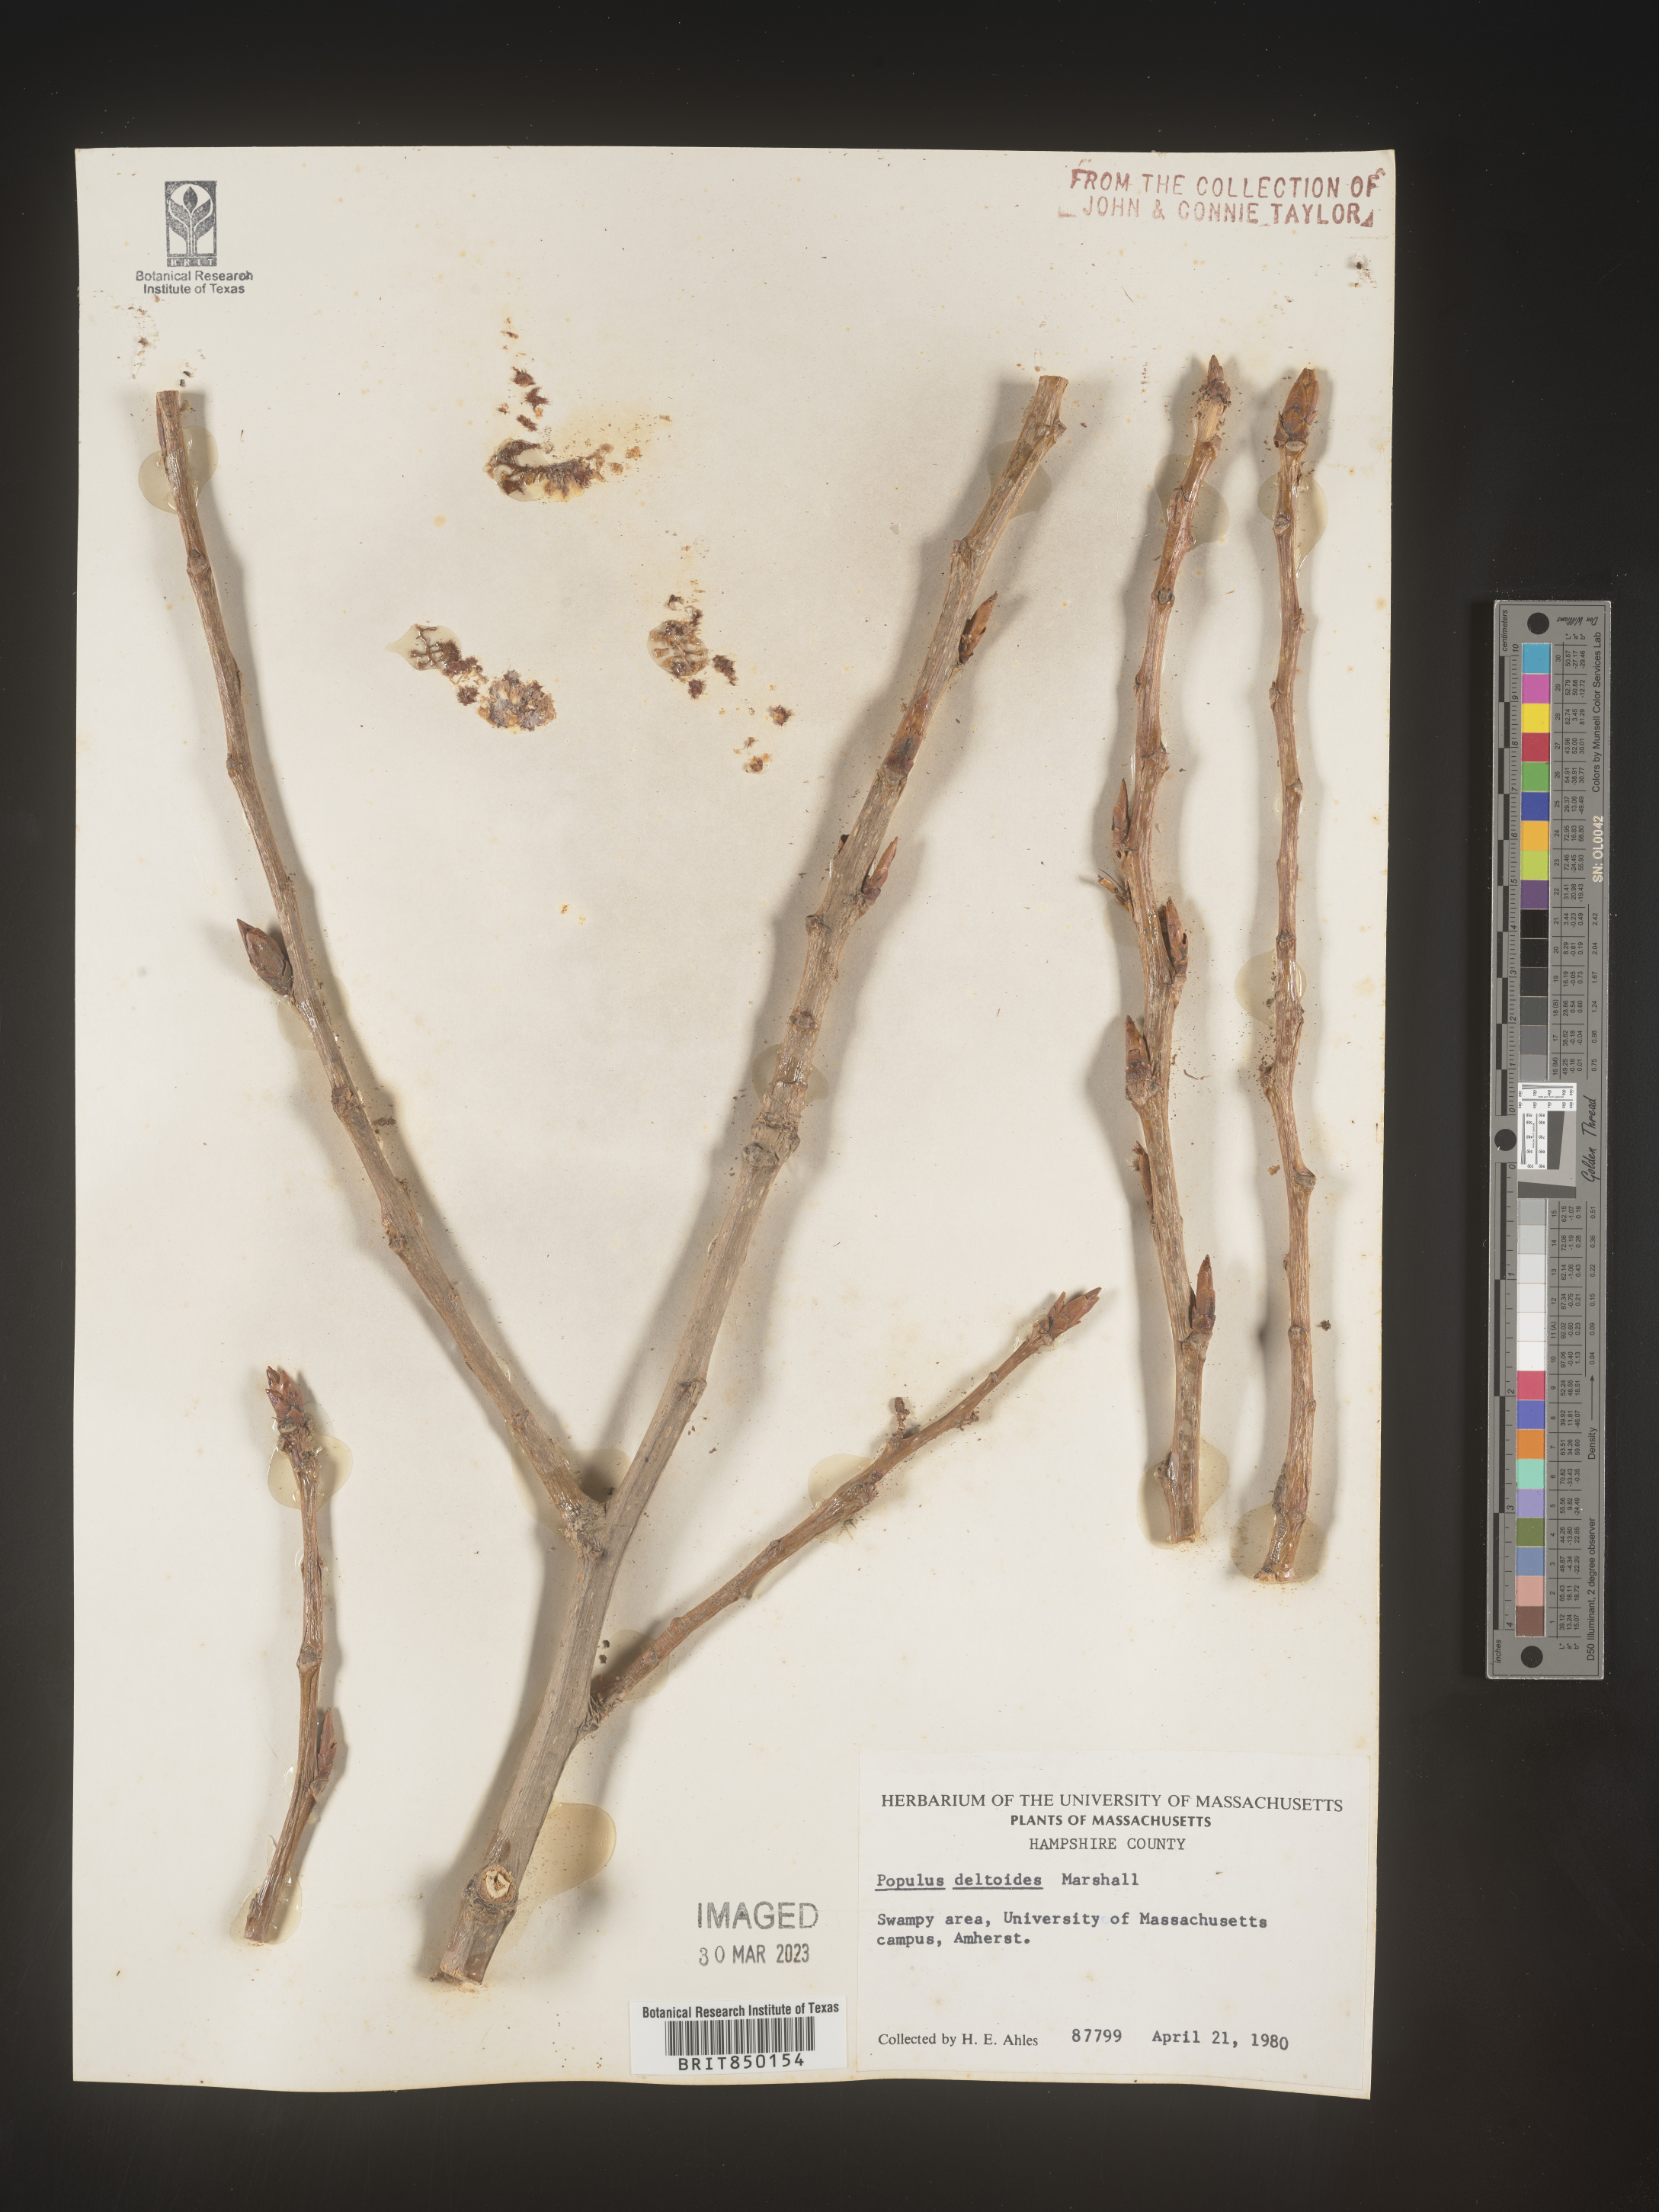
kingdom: Plantae
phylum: Tracheophyta
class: Magnoliopsida
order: Malpighiales
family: Salicaceae
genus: Populus
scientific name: Populus deltoides
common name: Eastern cottonwood
